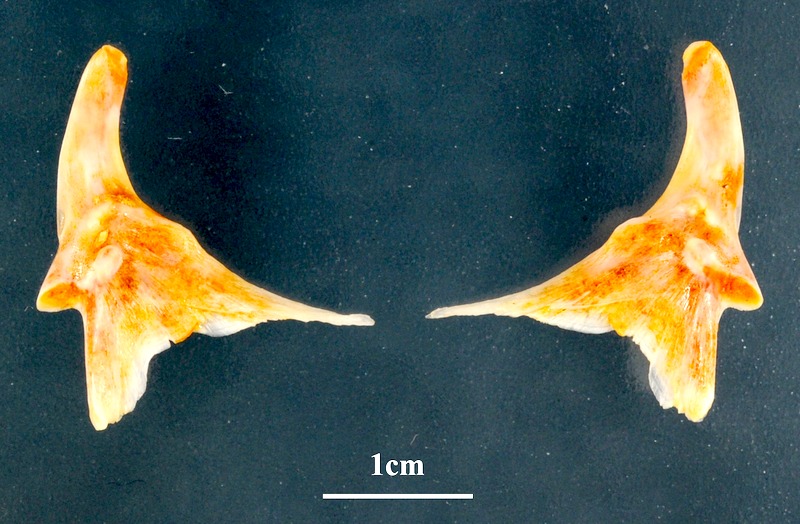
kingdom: Animalia
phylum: Chordata
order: Perciformes
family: Sparidae
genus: Pagellus
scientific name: Pagellus erythrinus
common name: Pandora
